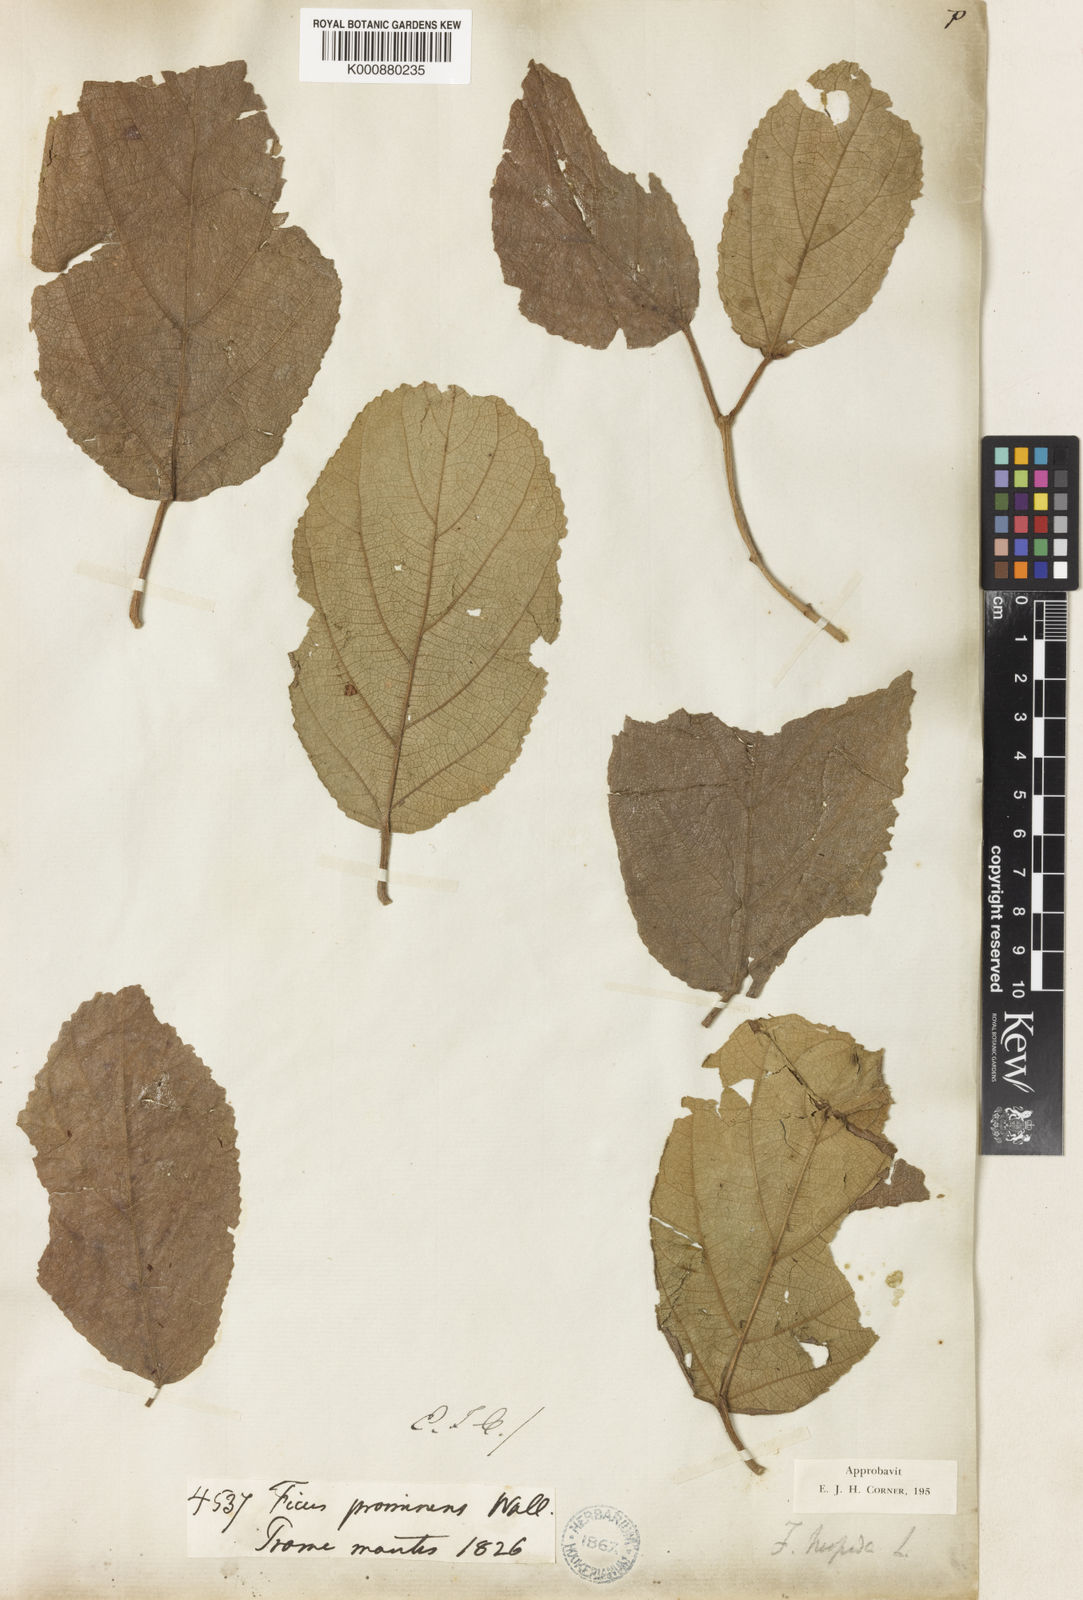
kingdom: Plantae
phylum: Tracheophyta
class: Magnoliopsida
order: Rosales
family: Moraceae
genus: Ficus
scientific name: Ficus hispida
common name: Hairy fig
